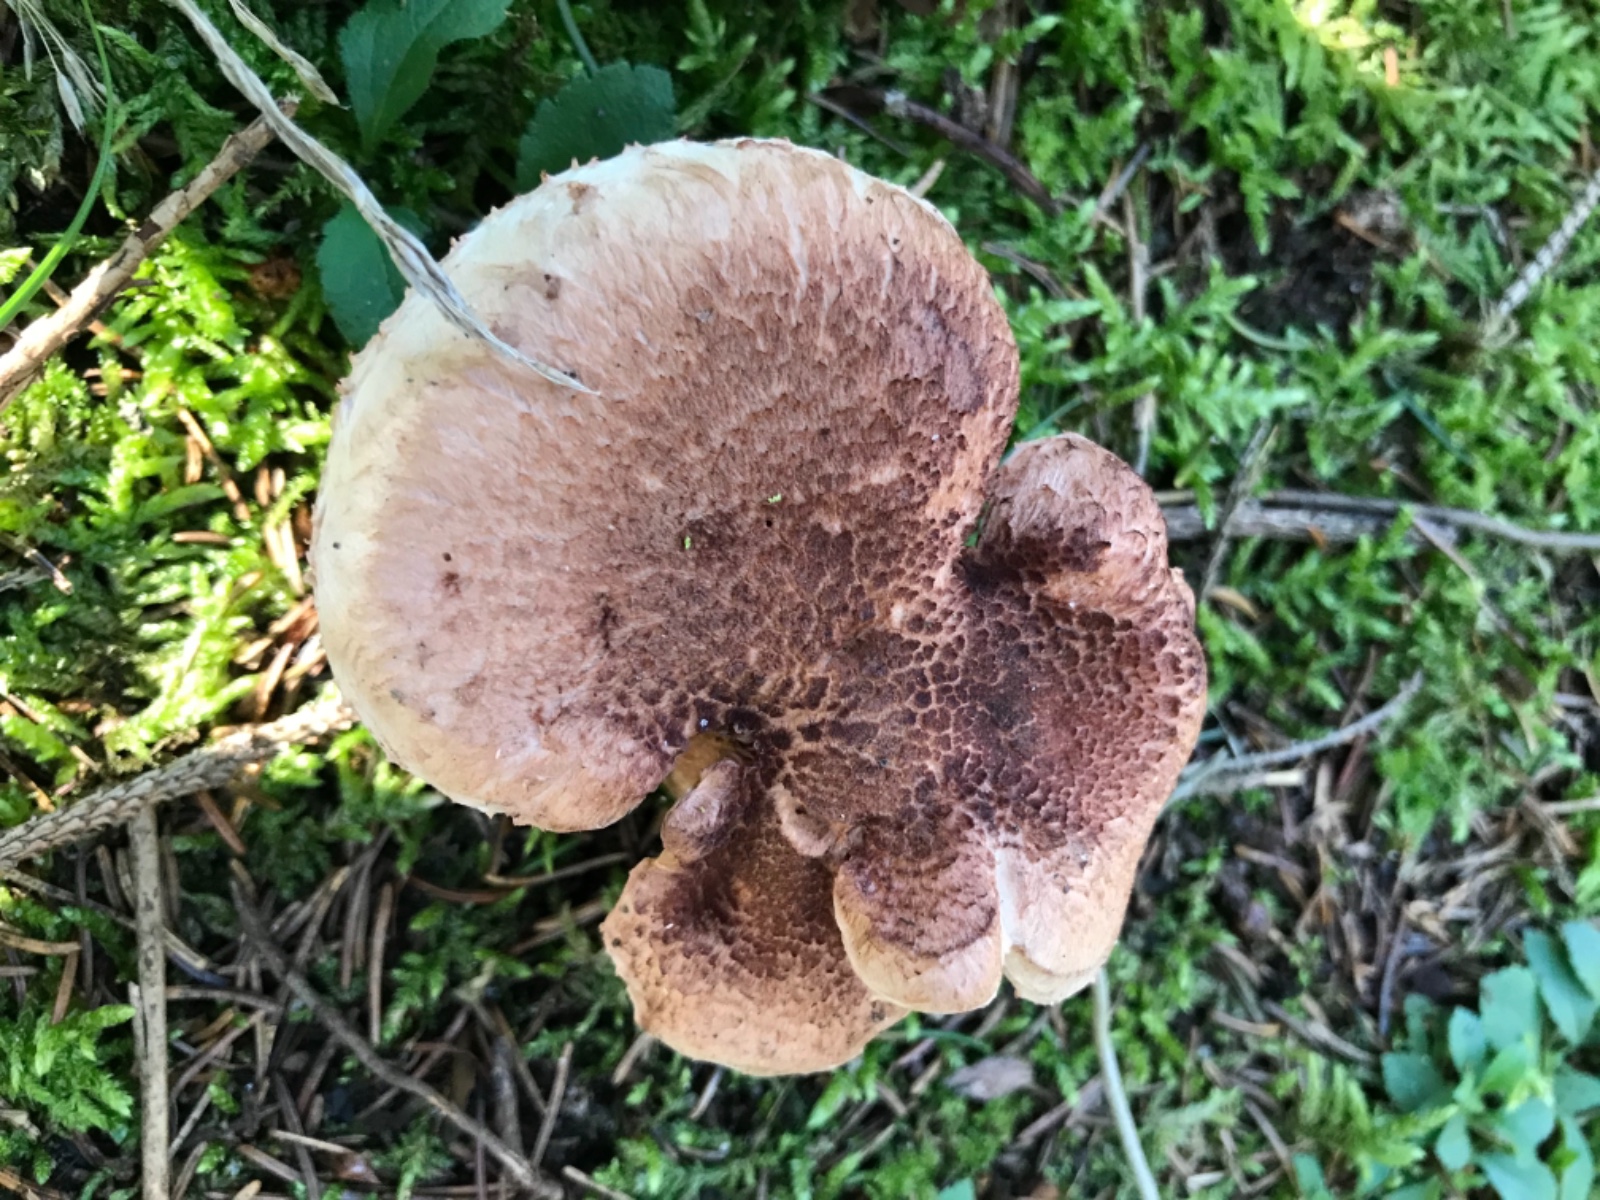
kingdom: Fungi
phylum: Basidiomycota
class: Agaricomycetes
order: Agaricales
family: Tricholomataceae
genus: Tricholoma
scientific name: Tricholoma vaccinum
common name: ko-ridderhat
